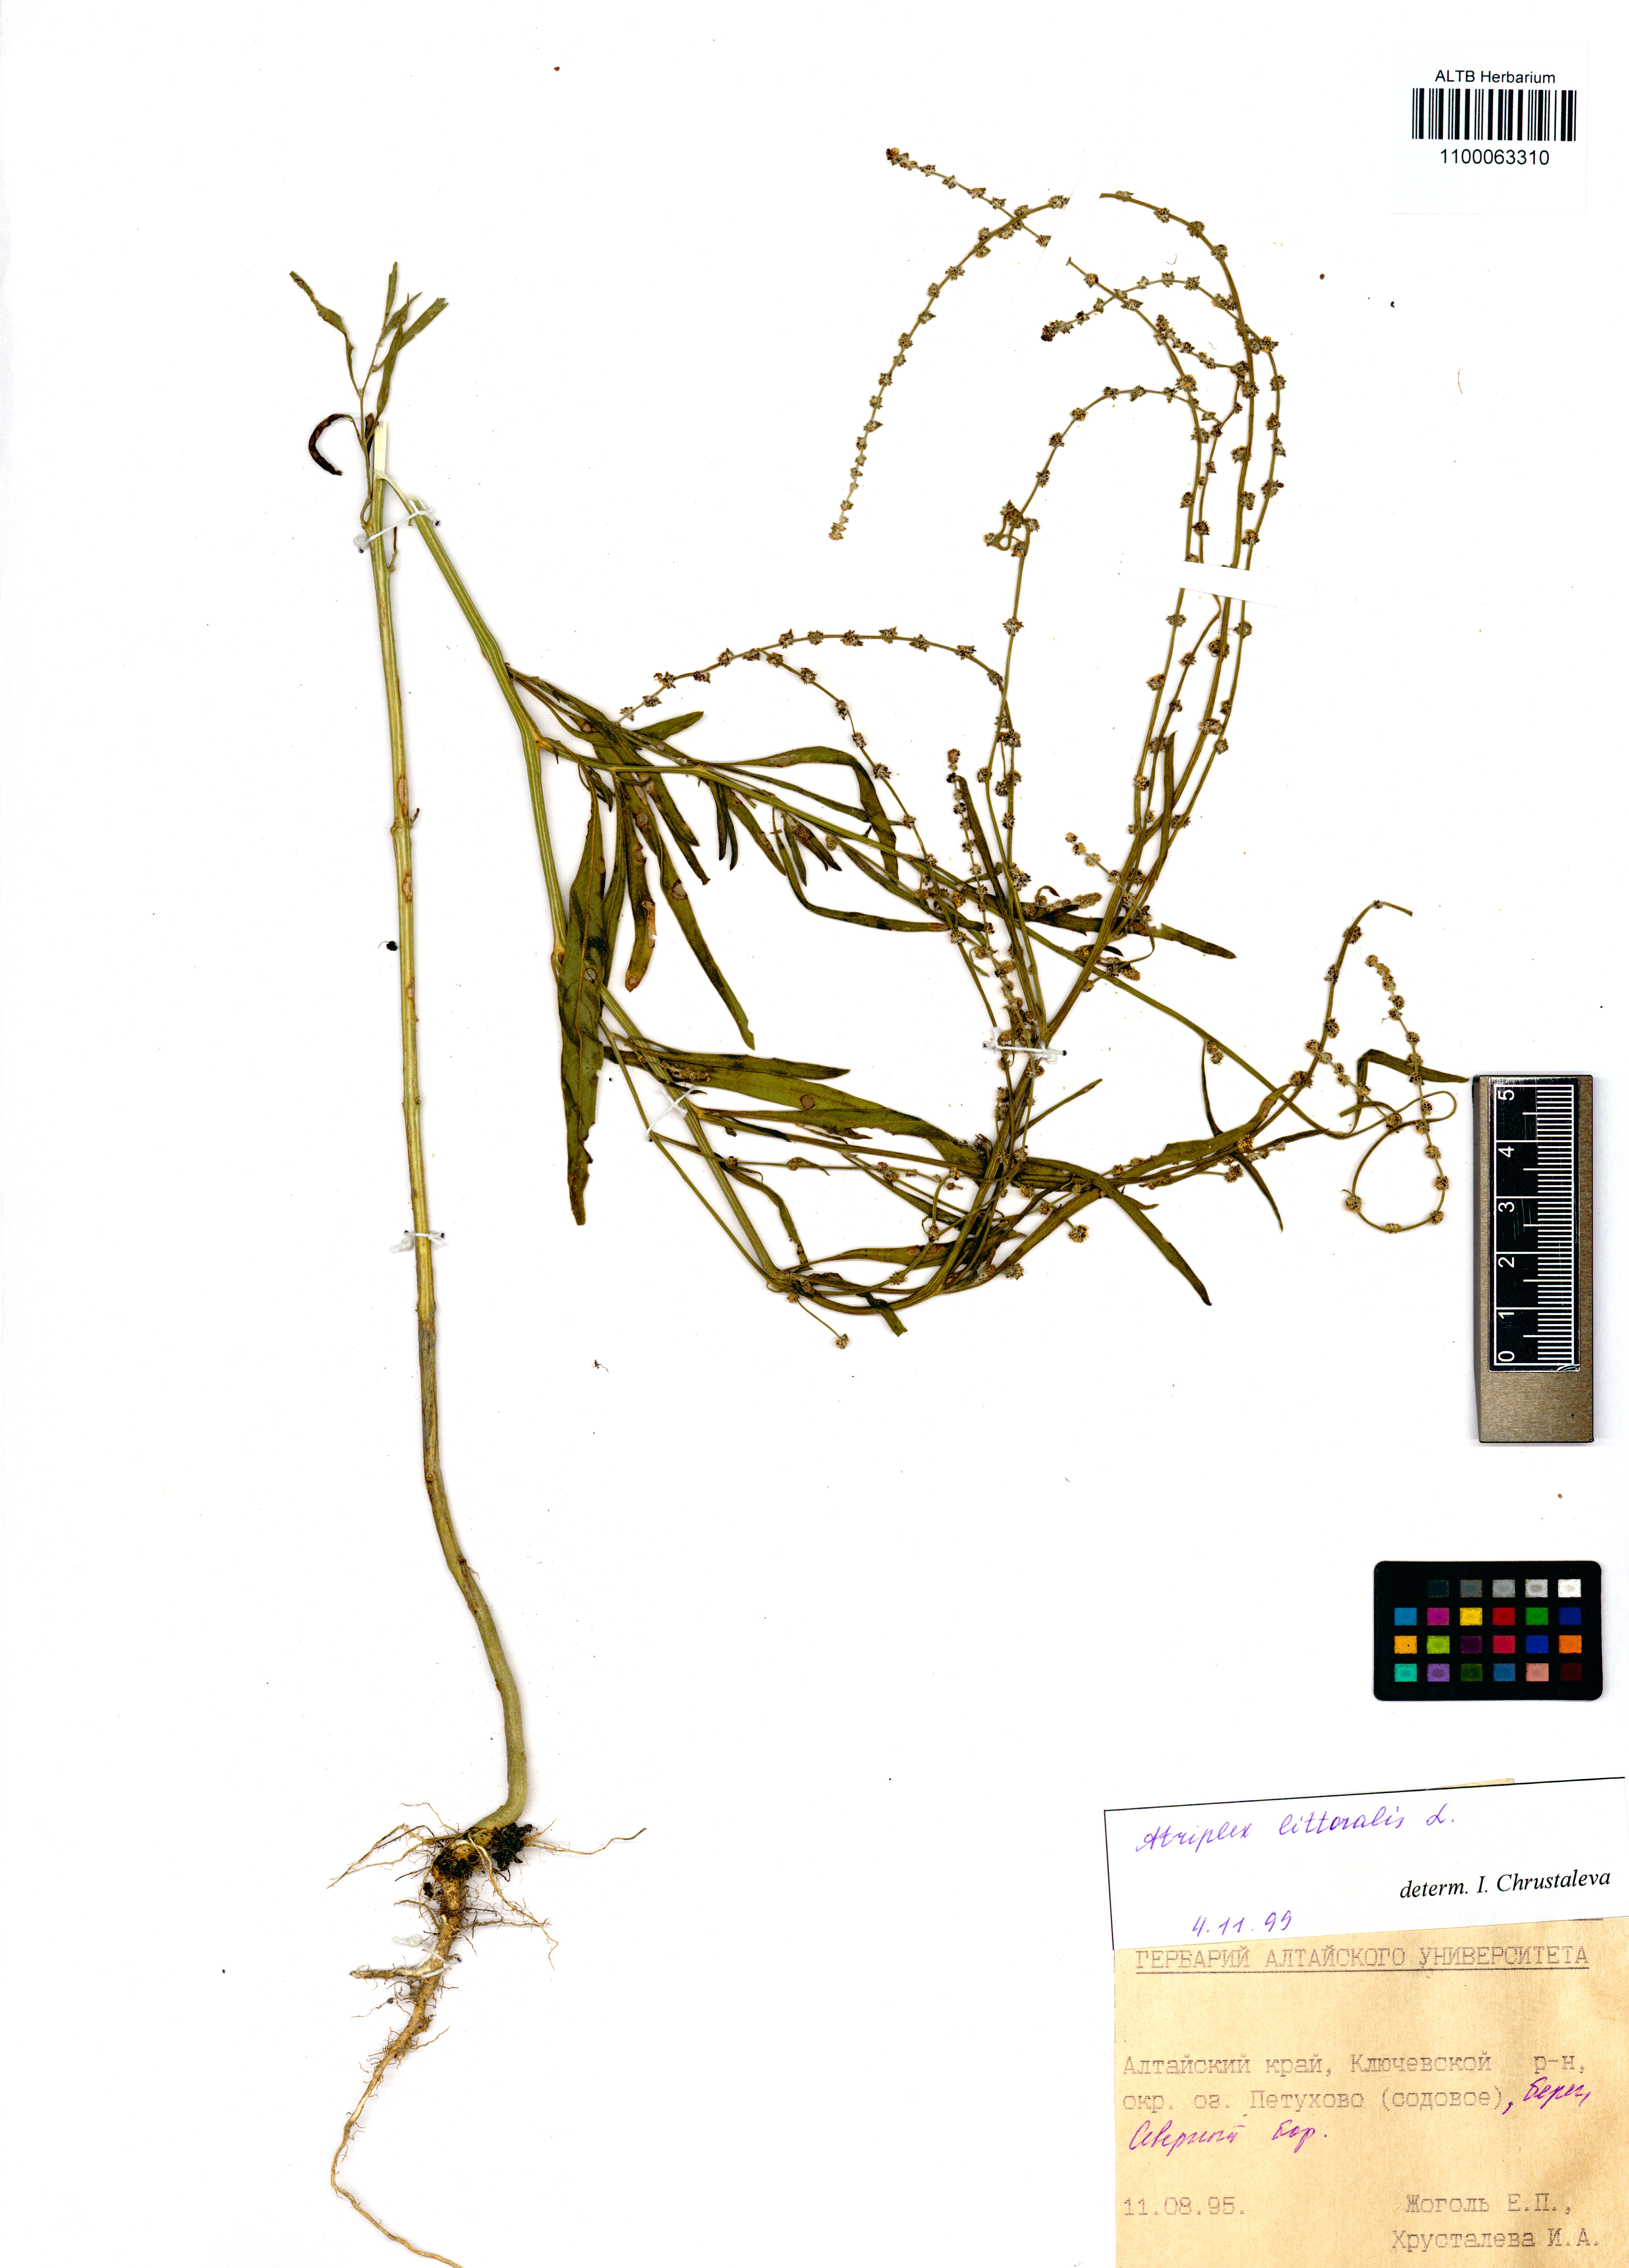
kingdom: Plantae
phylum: Tracheophyta
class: Magnoliopsida
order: Caryophyllales
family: Amaranthaceae
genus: Atriplex
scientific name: Atriplex littoralis
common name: Grass-leaved orache
